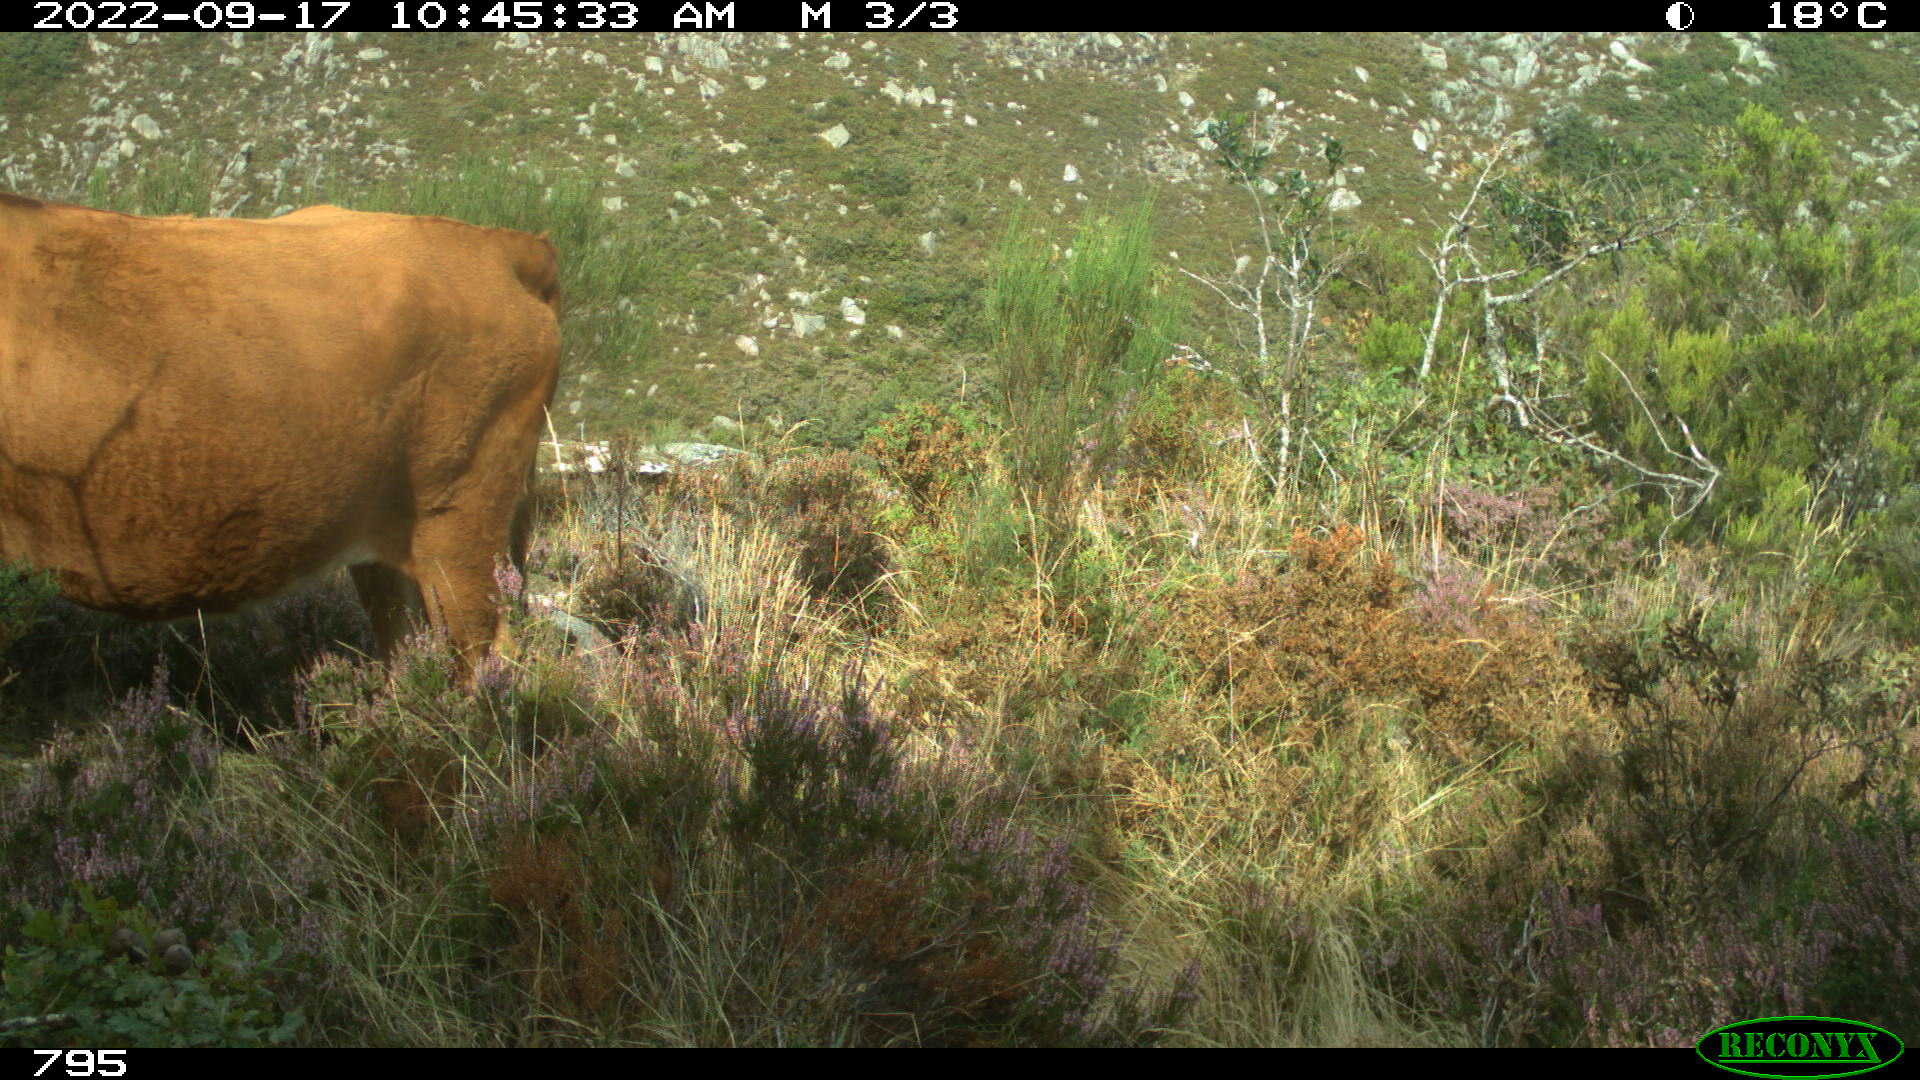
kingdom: Animalia
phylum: Chordata
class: Mammalia
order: Artiodactyla
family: Bovidae
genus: Bos
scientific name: Bos taurus
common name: Domesticated cattle
